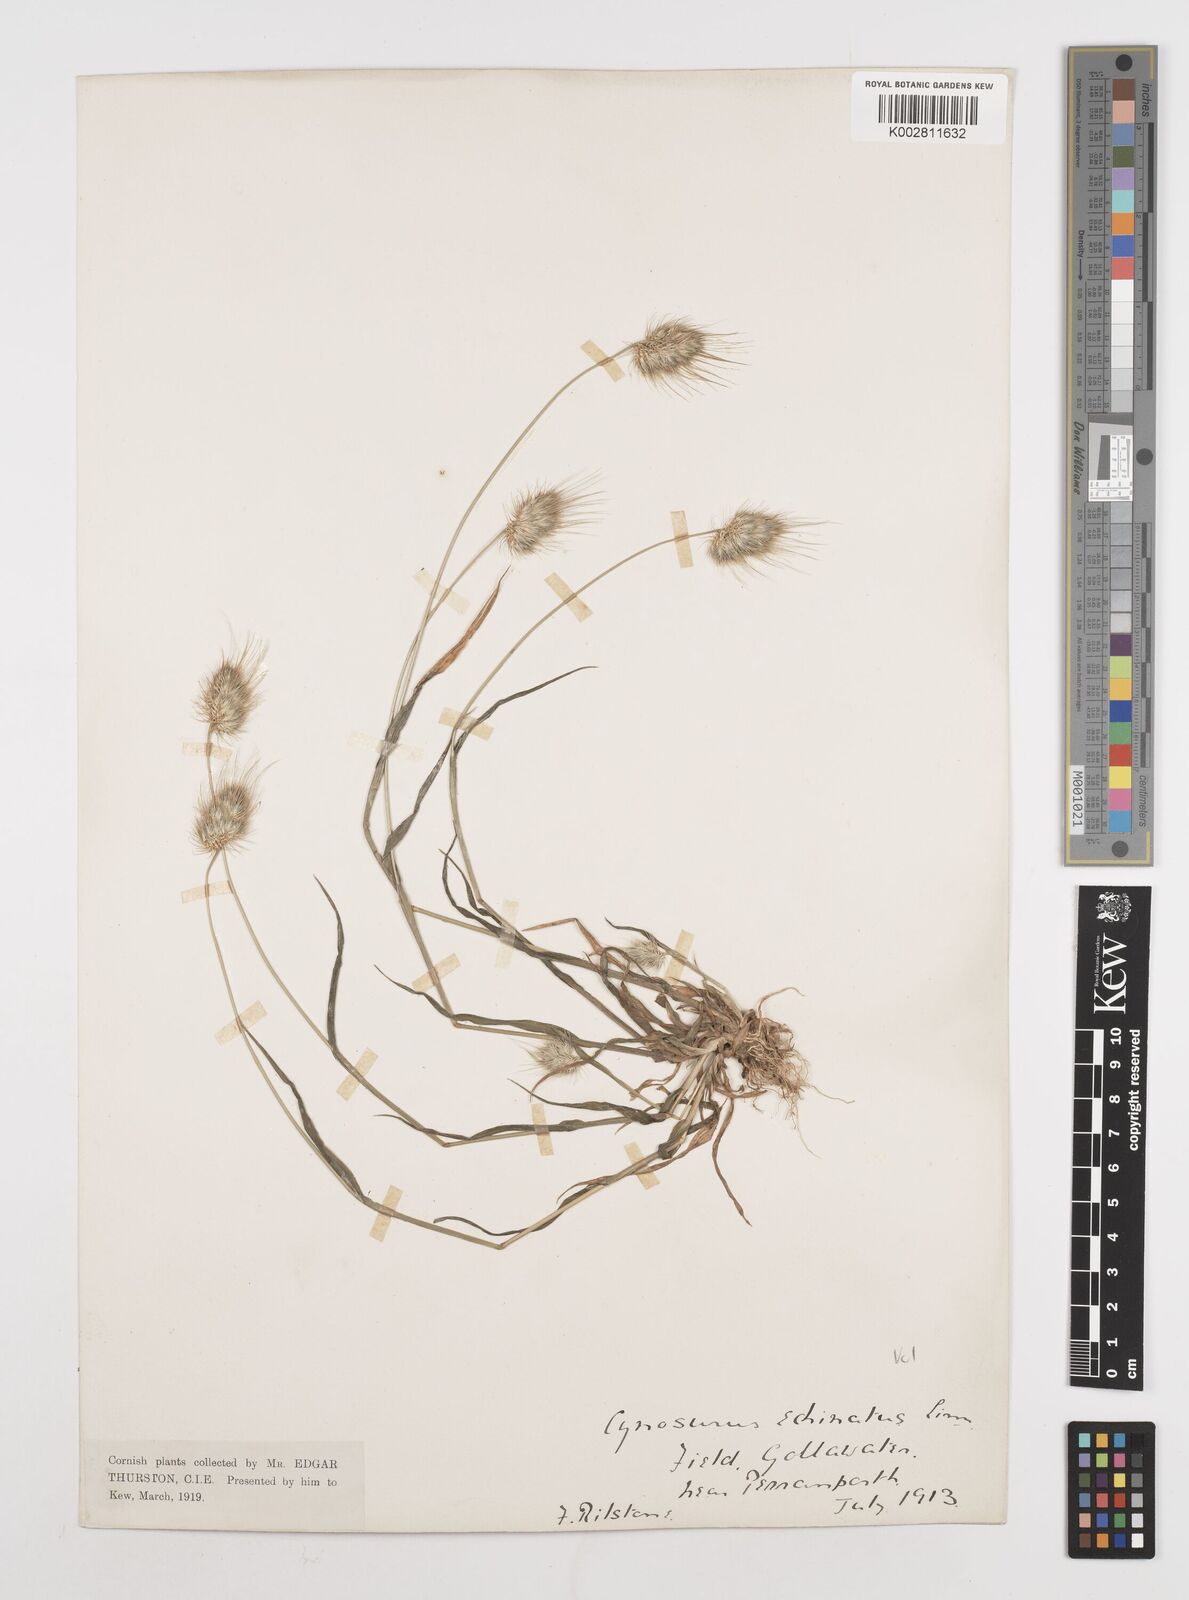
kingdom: Plantae
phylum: Tracheophyta
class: Liliopsida
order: Poales
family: Poaceae
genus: Cynosurus
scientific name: Cynosurus echinatus
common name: Rough dog's-tail
